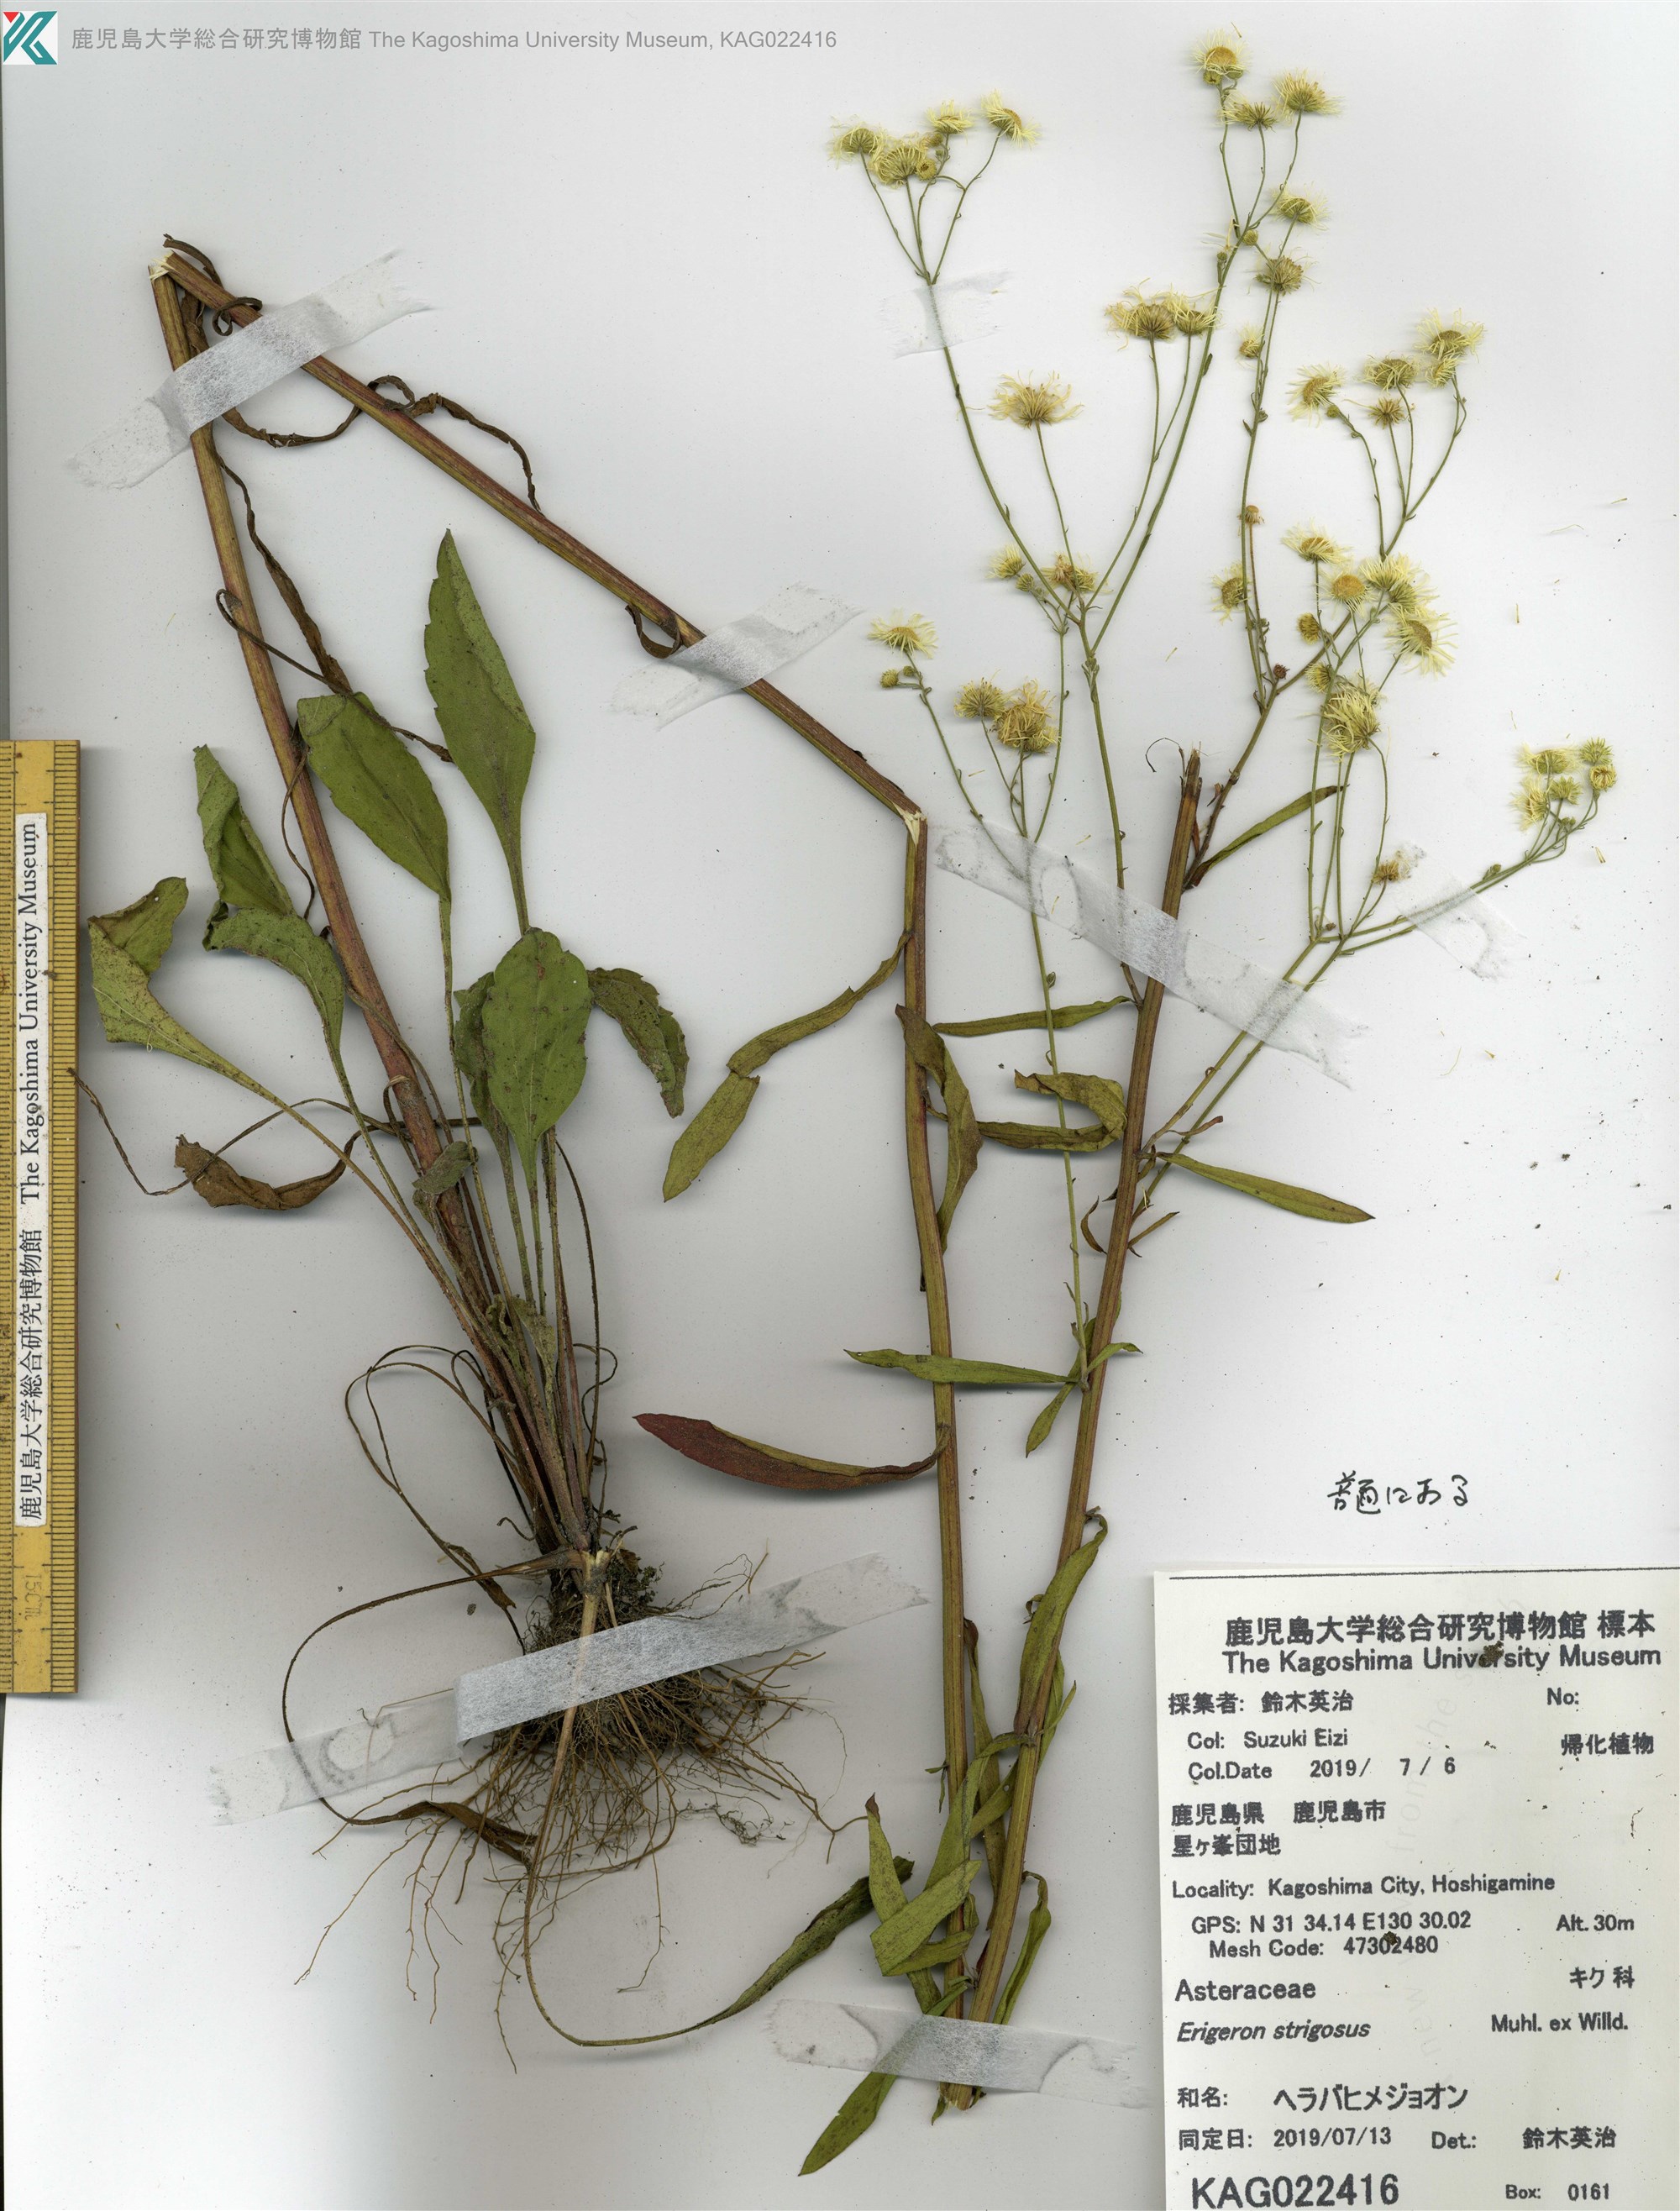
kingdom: Plantae
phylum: Tracheophyta
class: Magnoliopsida
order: Asterales
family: Asteraceae
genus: Erigeron
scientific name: Erigeron strigosus
